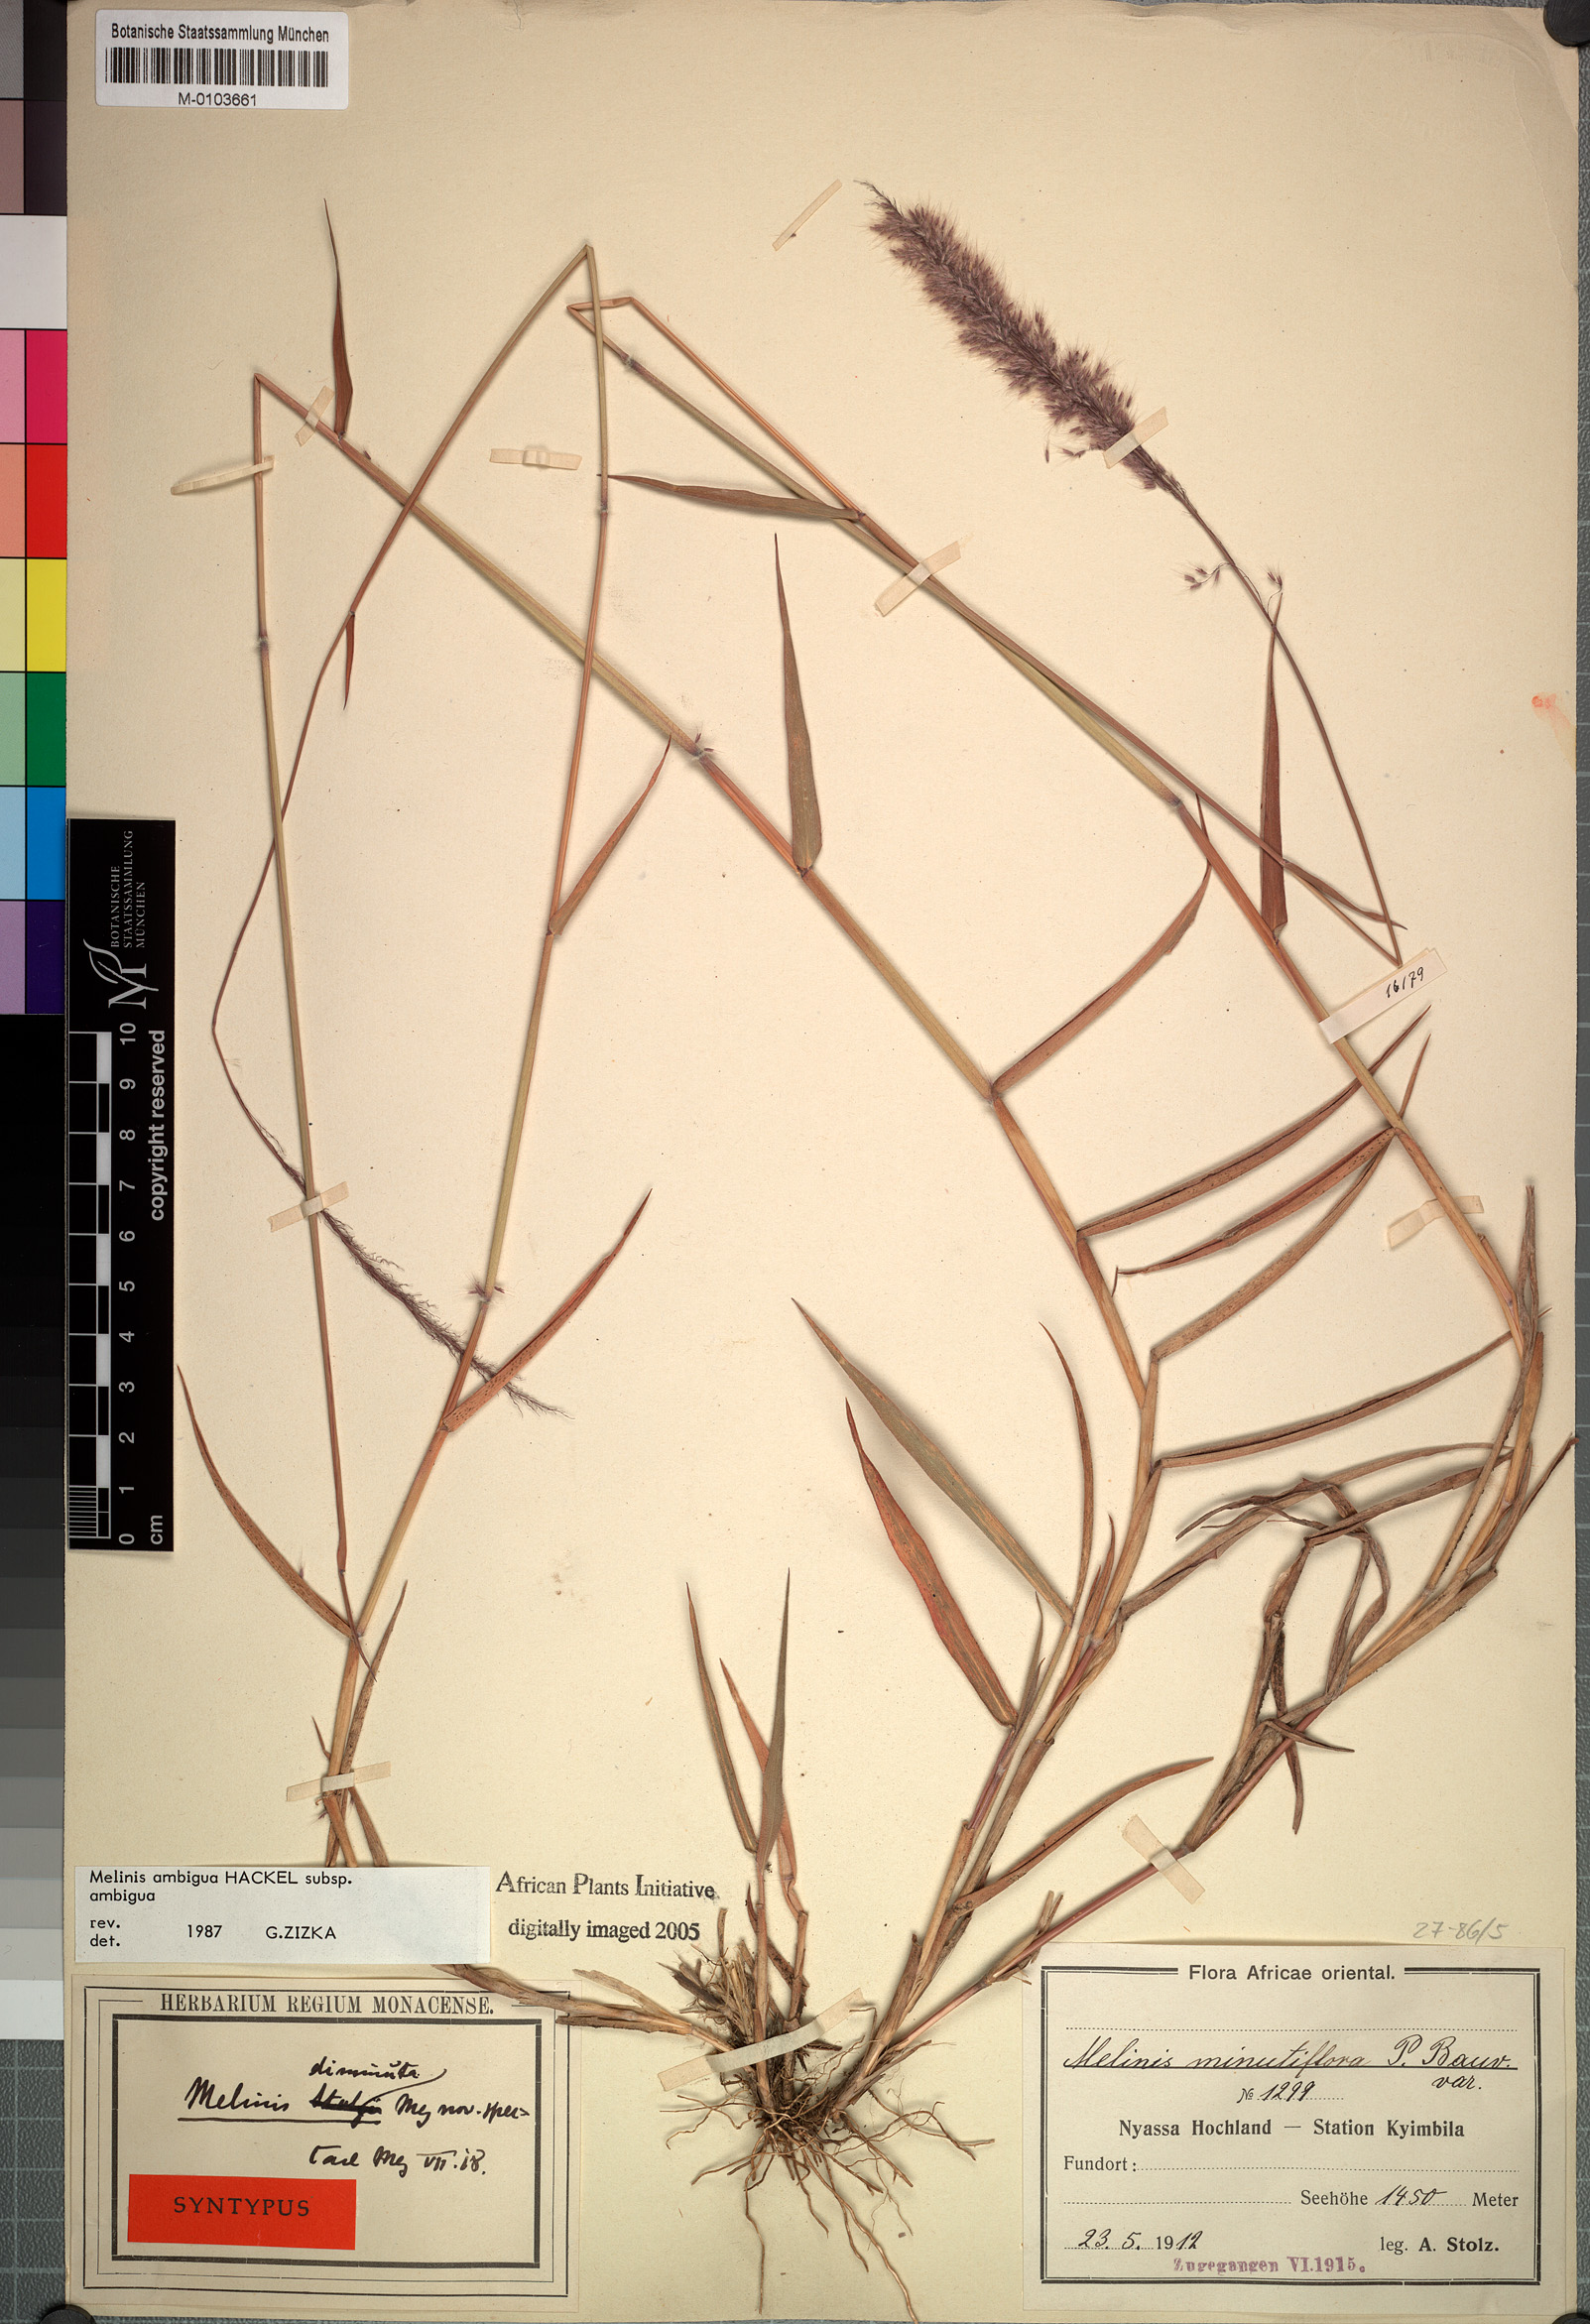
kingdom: Plantae
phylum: Tracheophyta
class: Liliopsida
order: Poales
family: Poaceae
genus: Melinis
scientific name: Melinis ambigua
